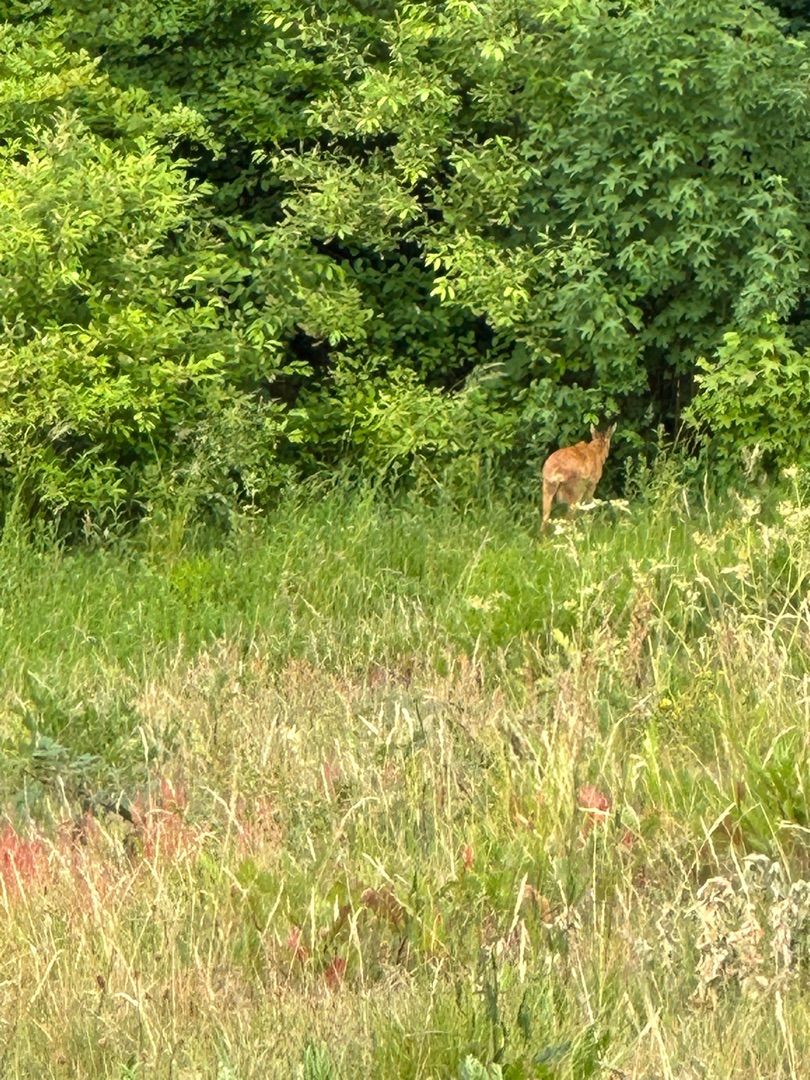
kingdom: Animalia
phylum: Chordata
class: Mammalia
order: Artiodactyla
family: Cervidae
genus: Capreolus
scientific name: Capreolus capreolus
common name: Rådyr
